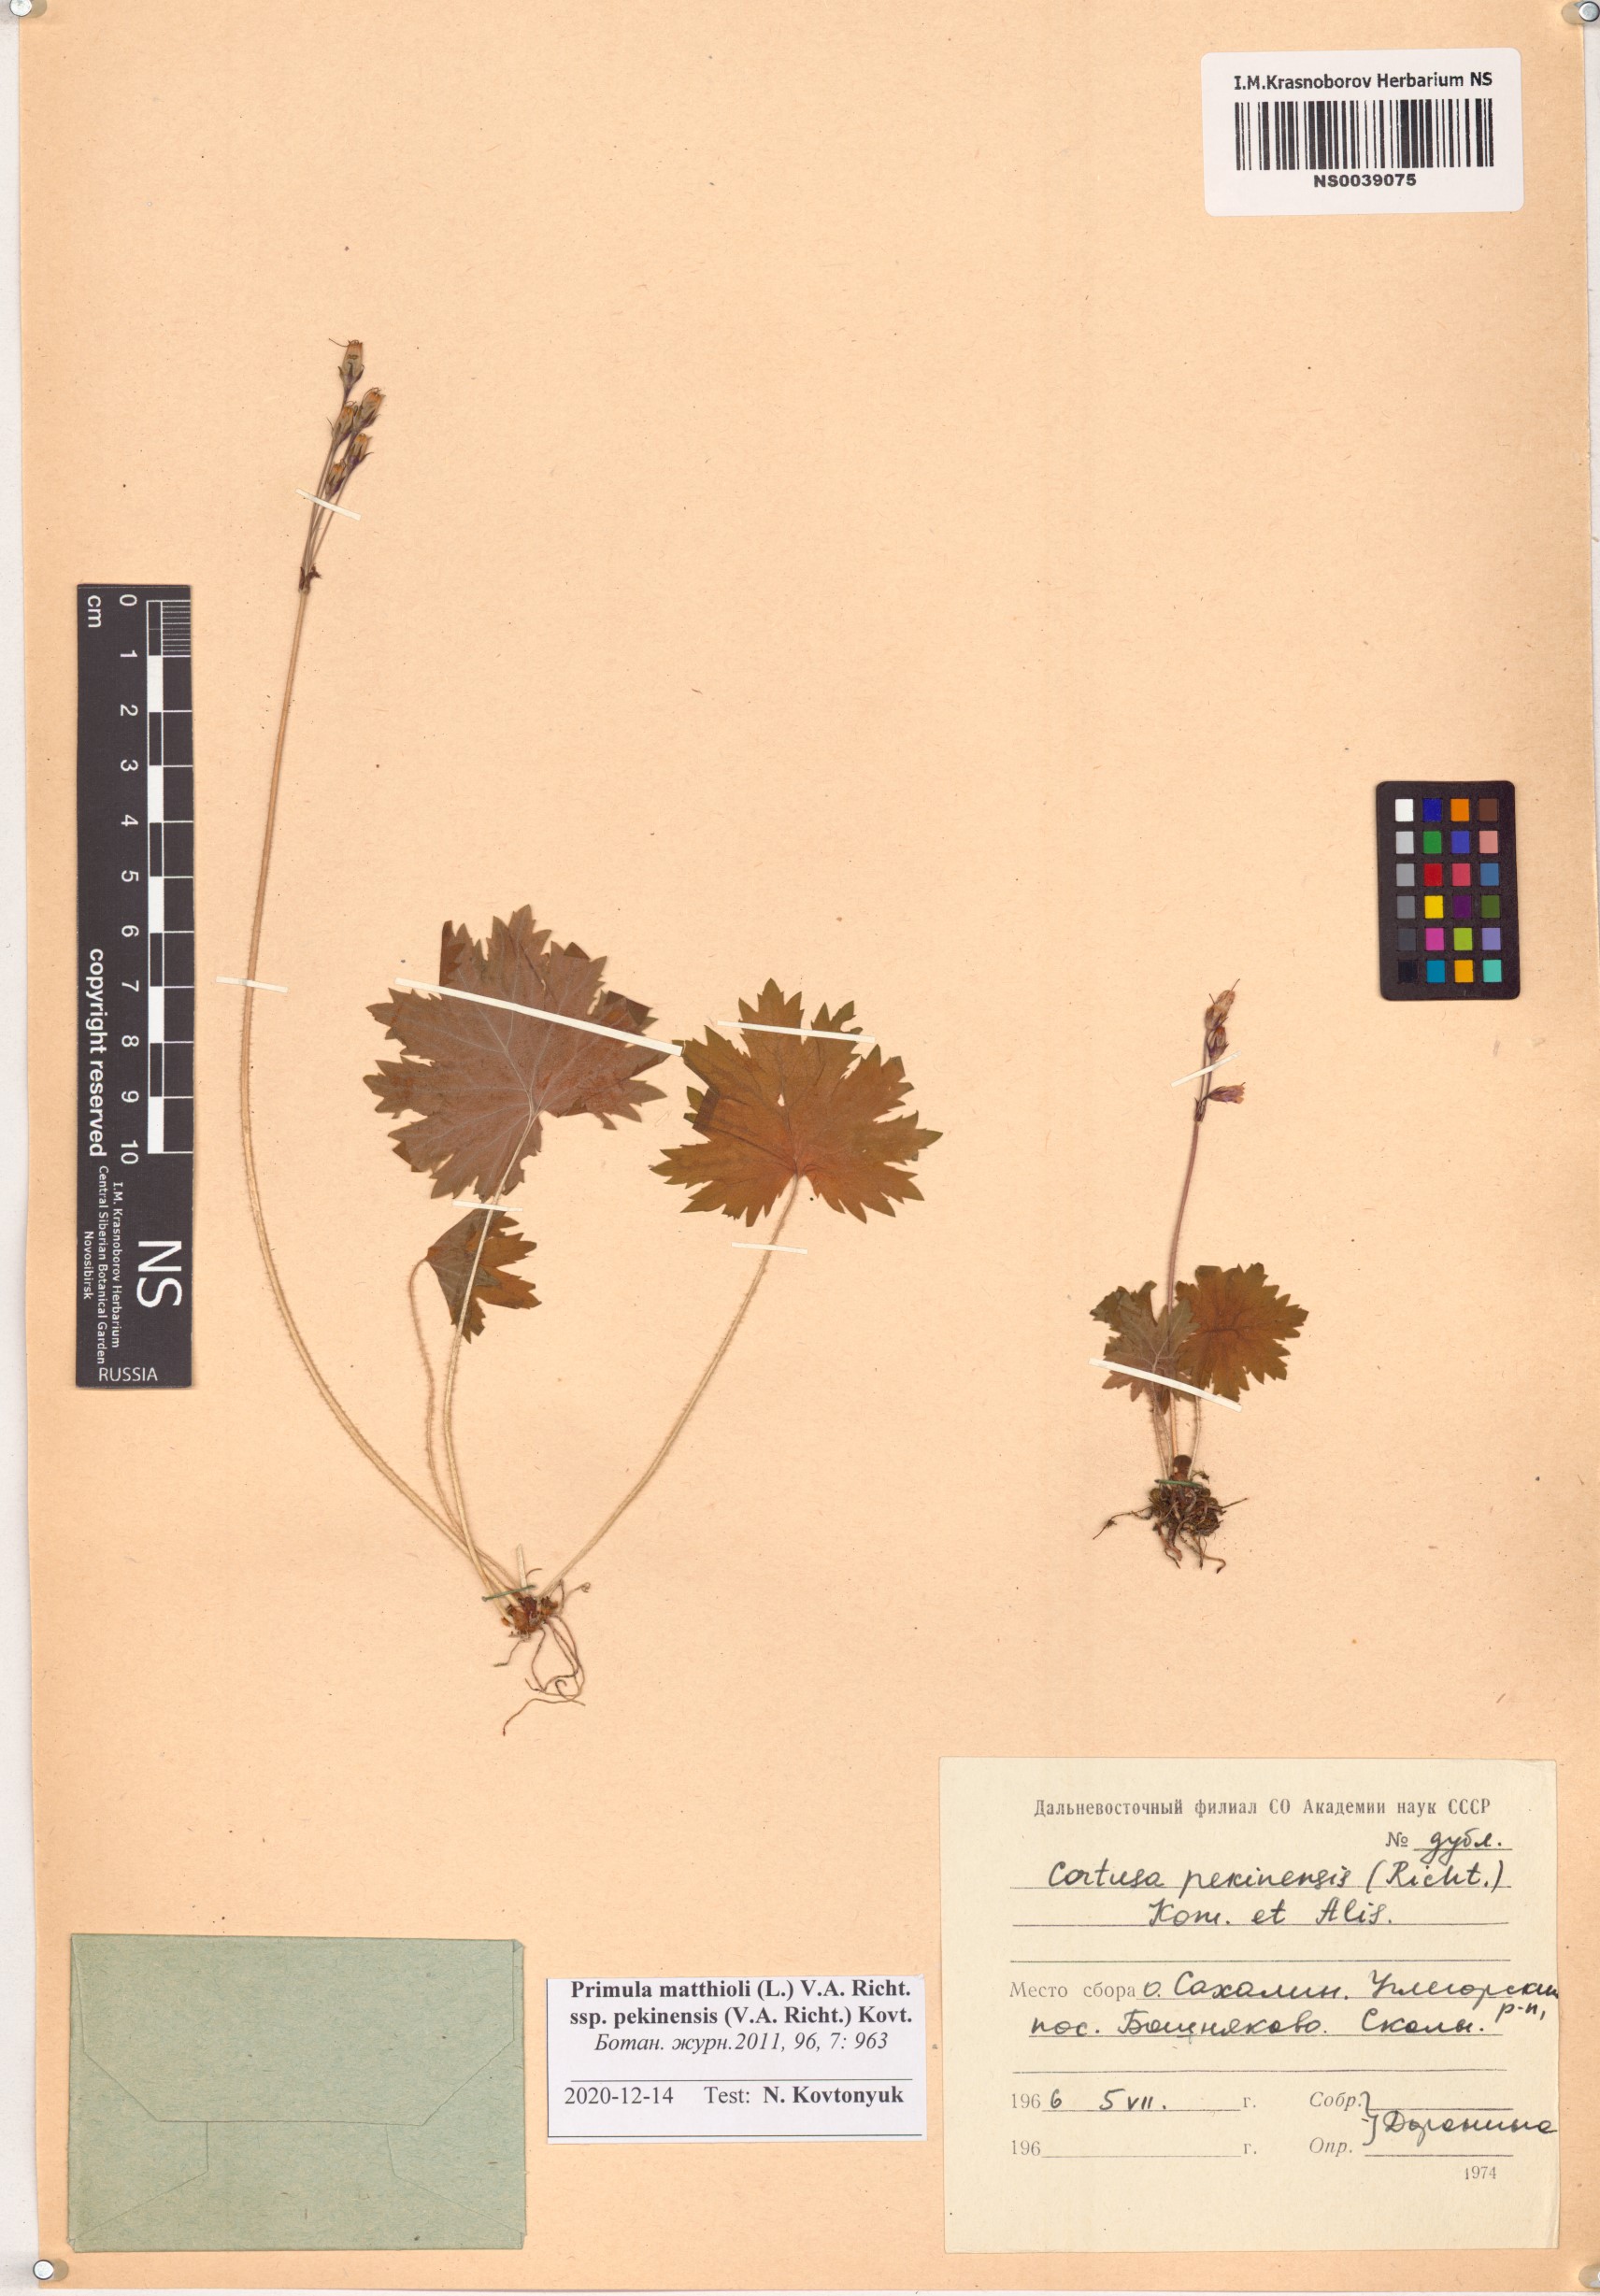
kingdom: Plantae
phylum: Tracheophyta
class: Magnoliopsida
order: Ericales
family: Primulaceae
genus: Primula
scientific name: Primula matthioli
